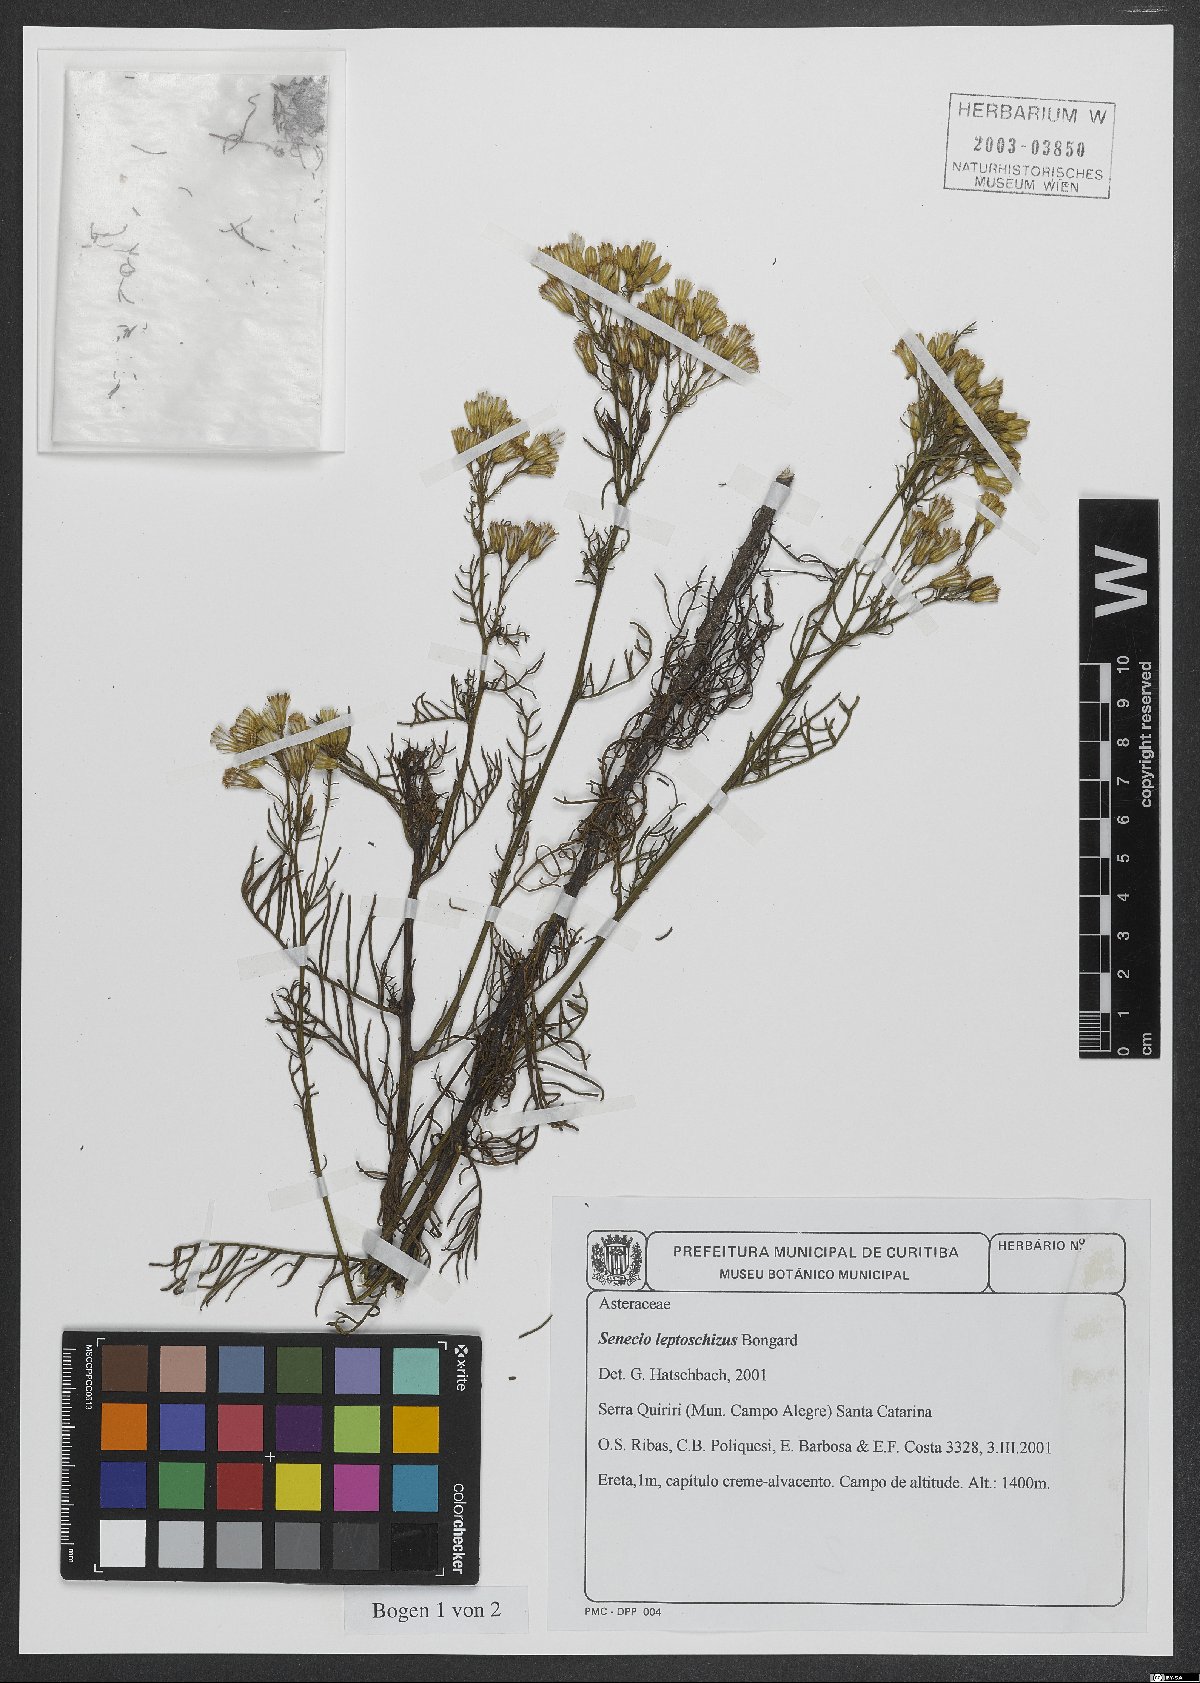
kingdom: Plantae
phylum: Tracheophyta
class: Magnoliopsida
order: Asterales
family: Asteraceae
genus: Senecio
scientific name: Senecio leptoschizus
